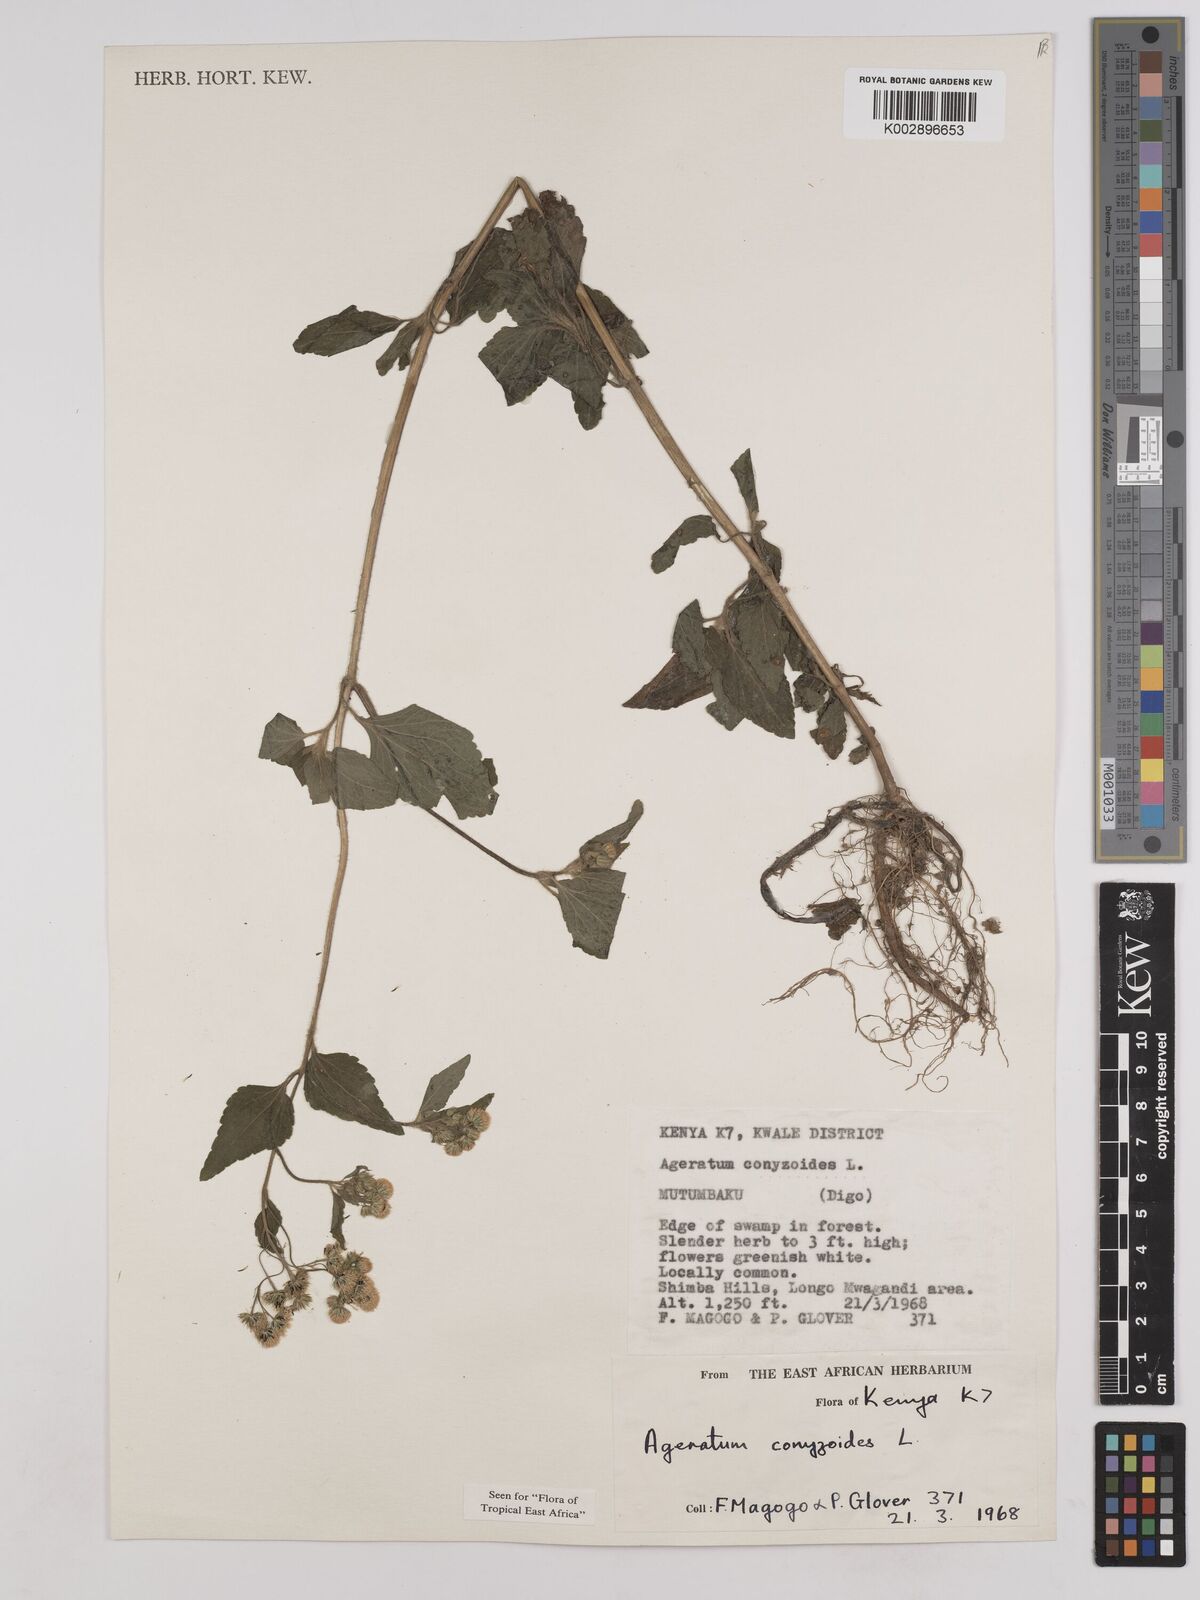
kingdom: Plantae
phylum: Tracheophyta
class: Magnoliopsida
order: Asterales
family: Asteraceae
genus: Ageratum
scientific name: Ageratum conyzoides
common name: Tropical whiteweed
